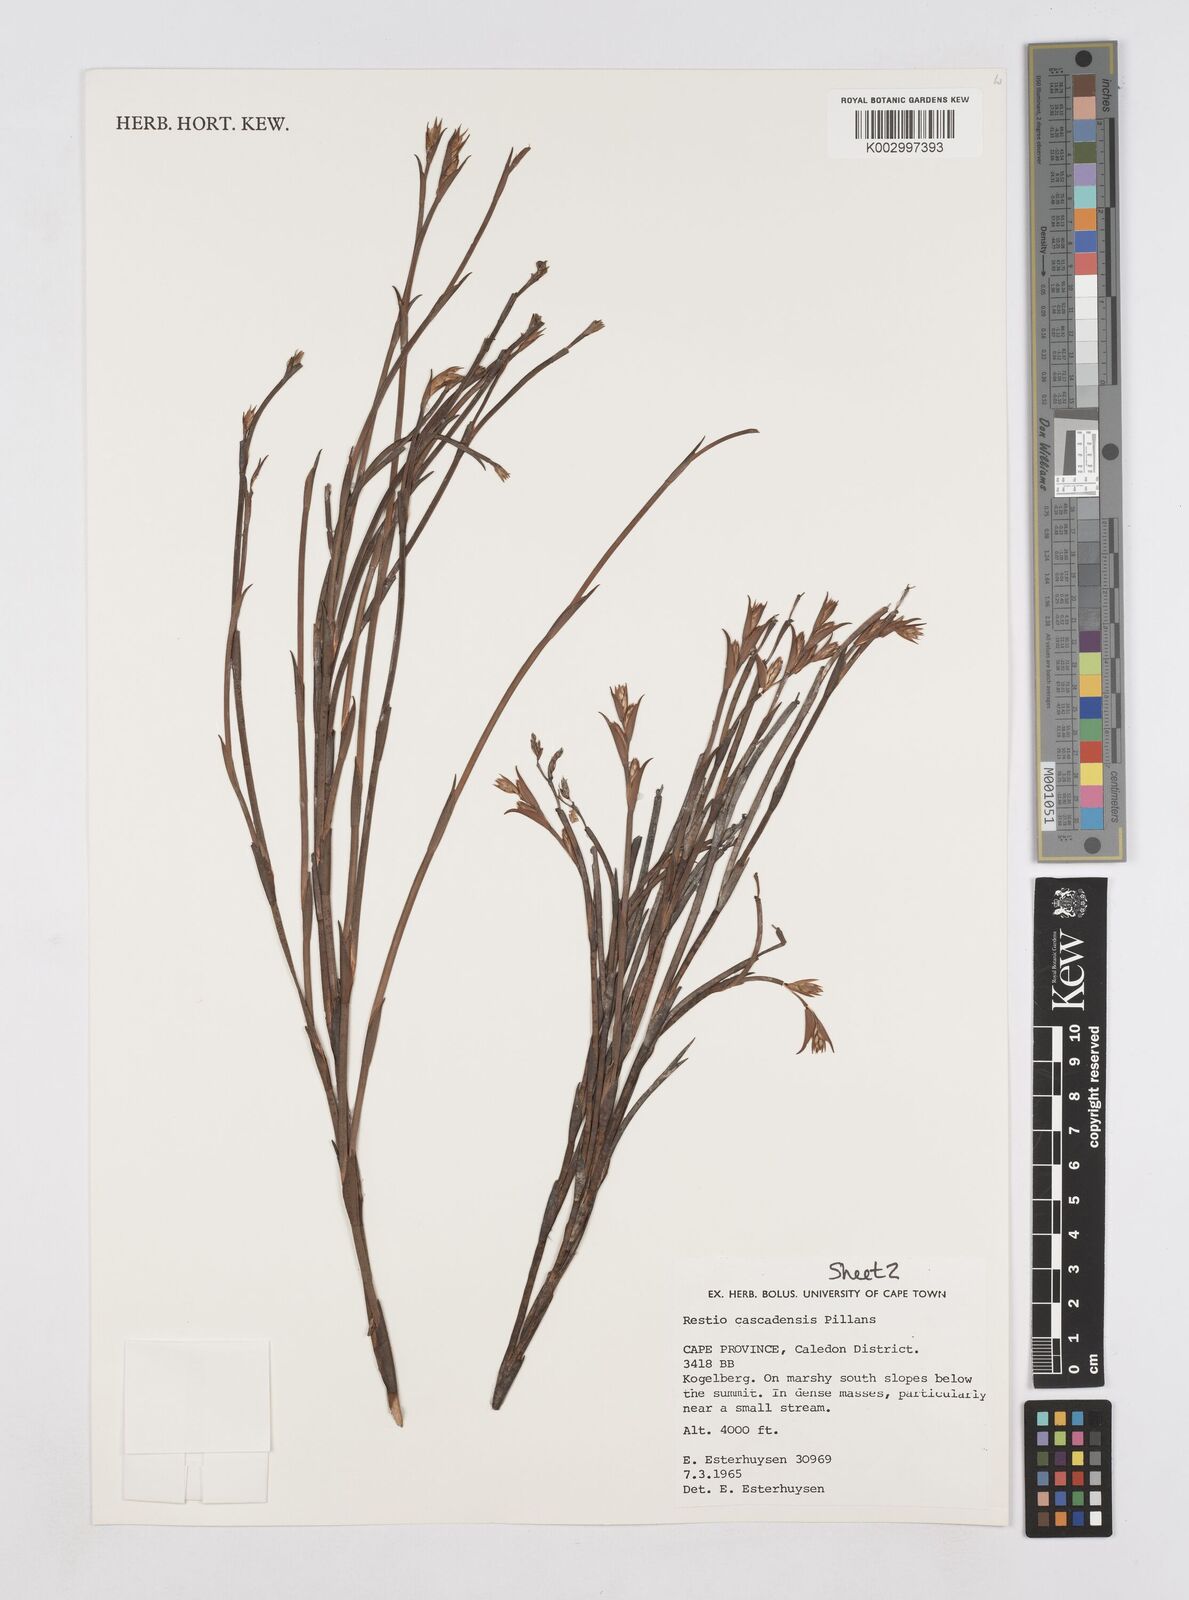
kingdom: Plantae
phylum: Tracheophyta
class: Liliopsida
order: Poales
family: Restionaceae
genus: Platycaulos
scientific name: Platycaulos cascadensis
